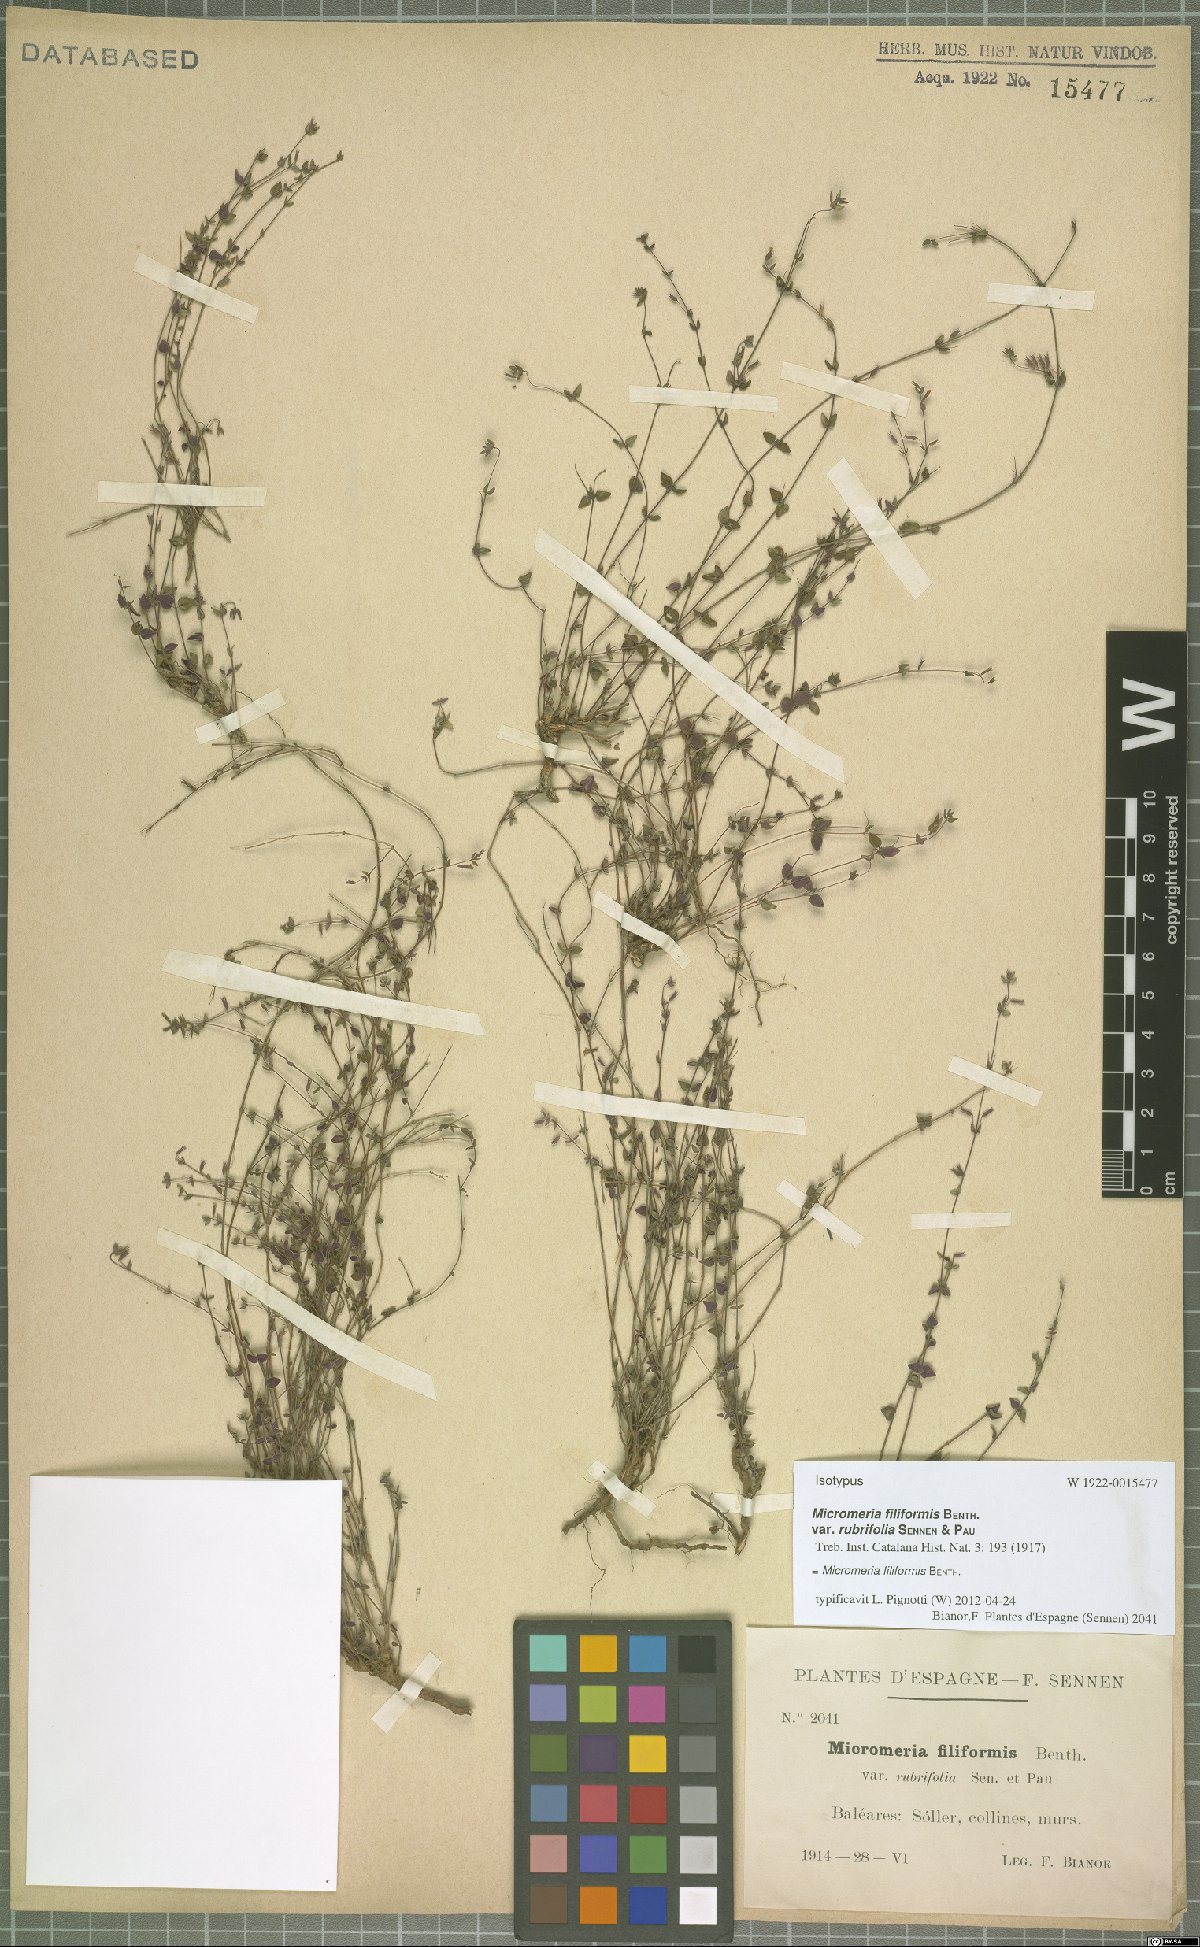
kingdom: Plantae
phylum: Tracheophyta
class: Magnoliopsida
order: Lamiales
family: Lamiaceae
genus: Micromeria
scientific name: Micromeria filiformis
